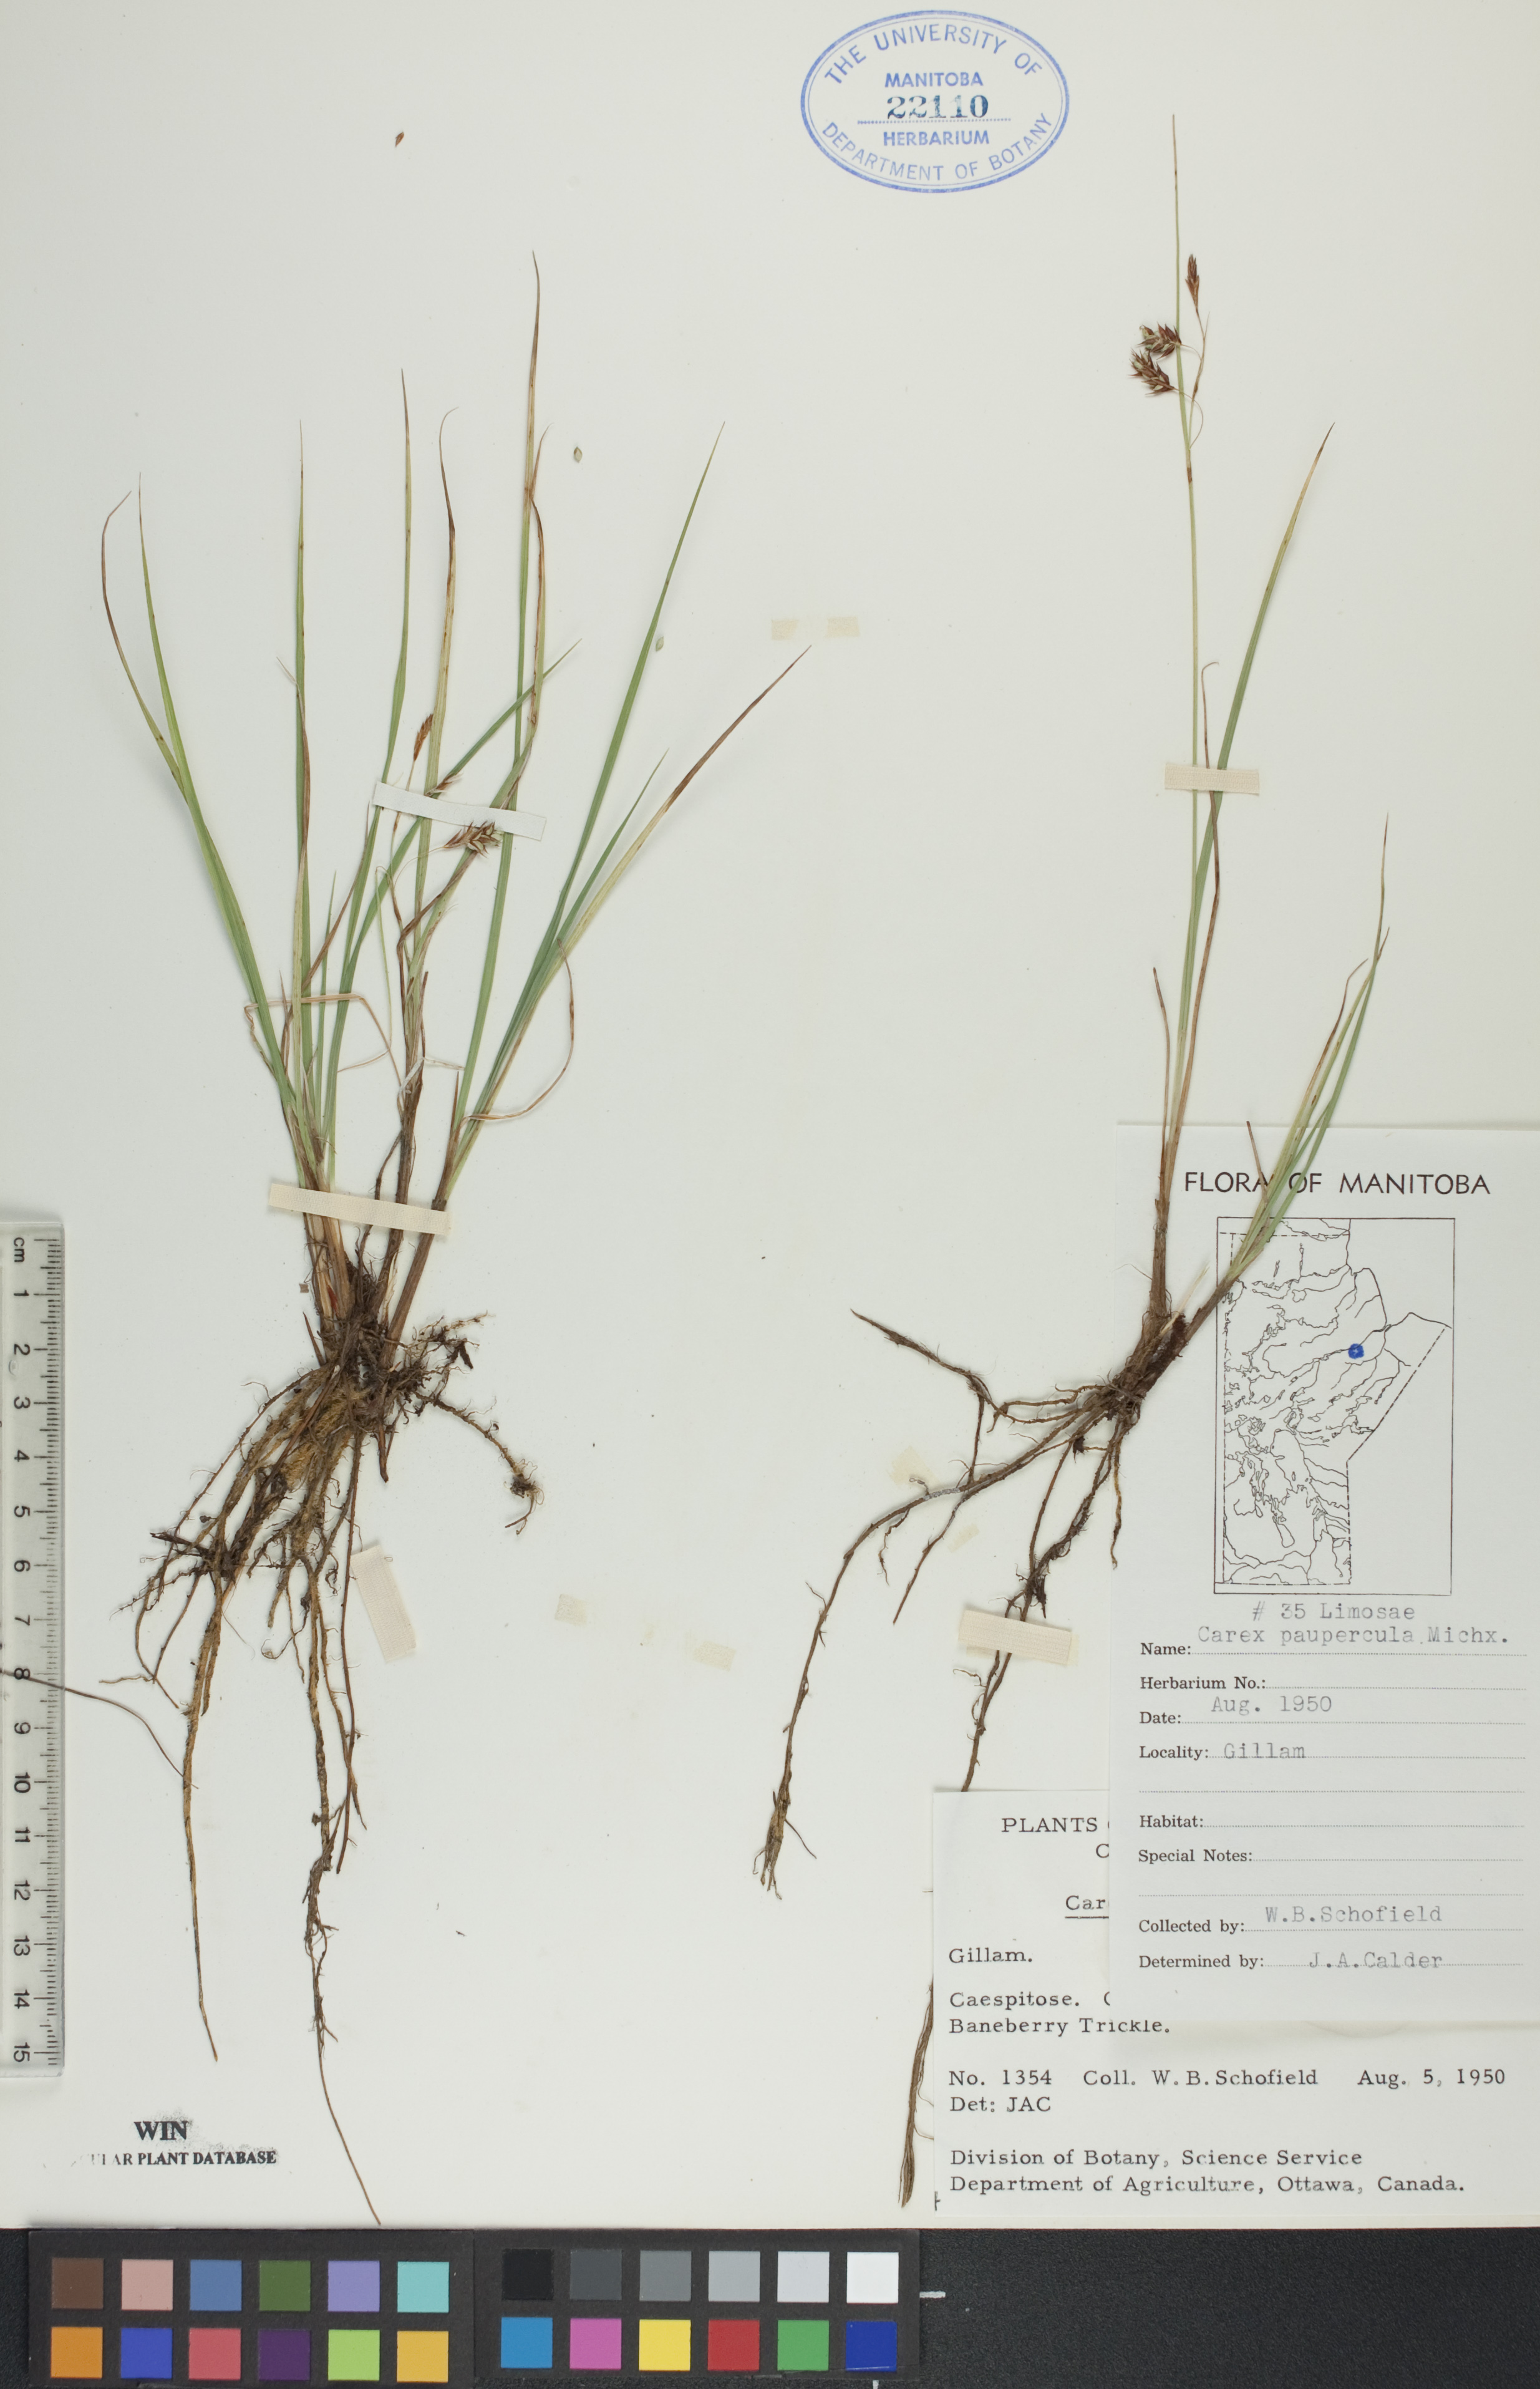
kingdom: Plantae
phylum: Tracheophyta
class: Liliopsida
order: Poales
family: Cyperaceae
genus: Carex
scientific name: Carex magellanica
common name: Bog sedge
